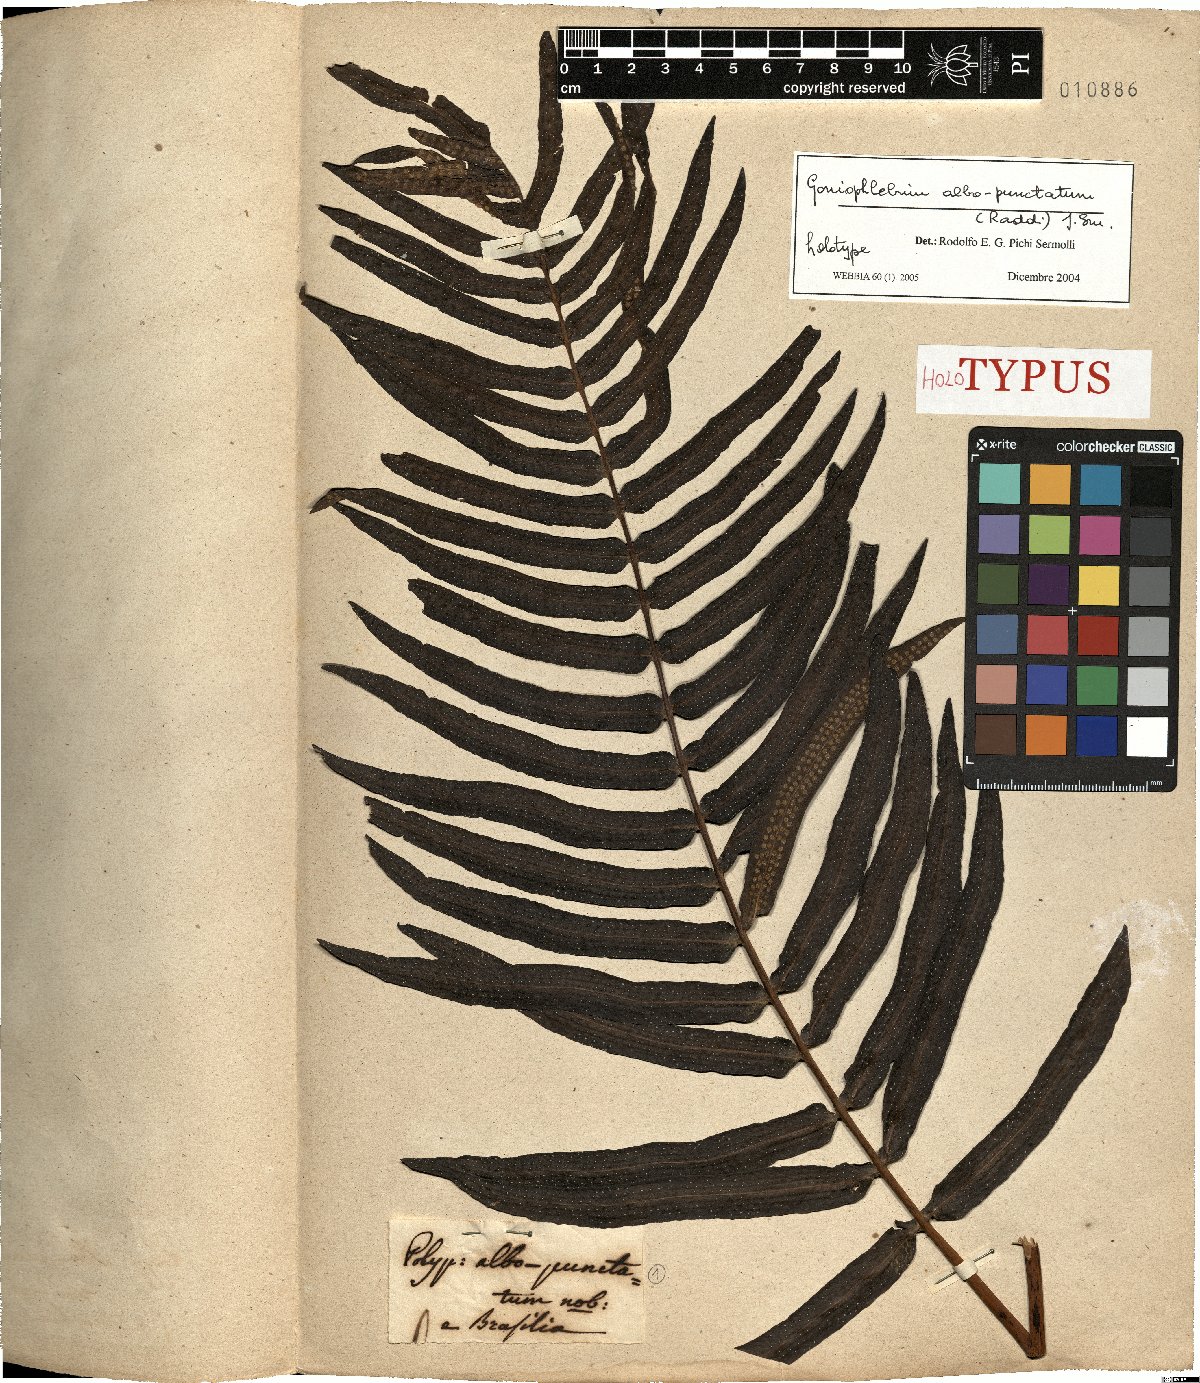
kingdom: Plantae
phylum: Tracheophyta
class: Polypodiopsida
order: Polypodiales
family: Polypodiaceae
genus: Serpocaulon
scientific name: Serpocaulon triseriale
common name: Angle-vein fern
